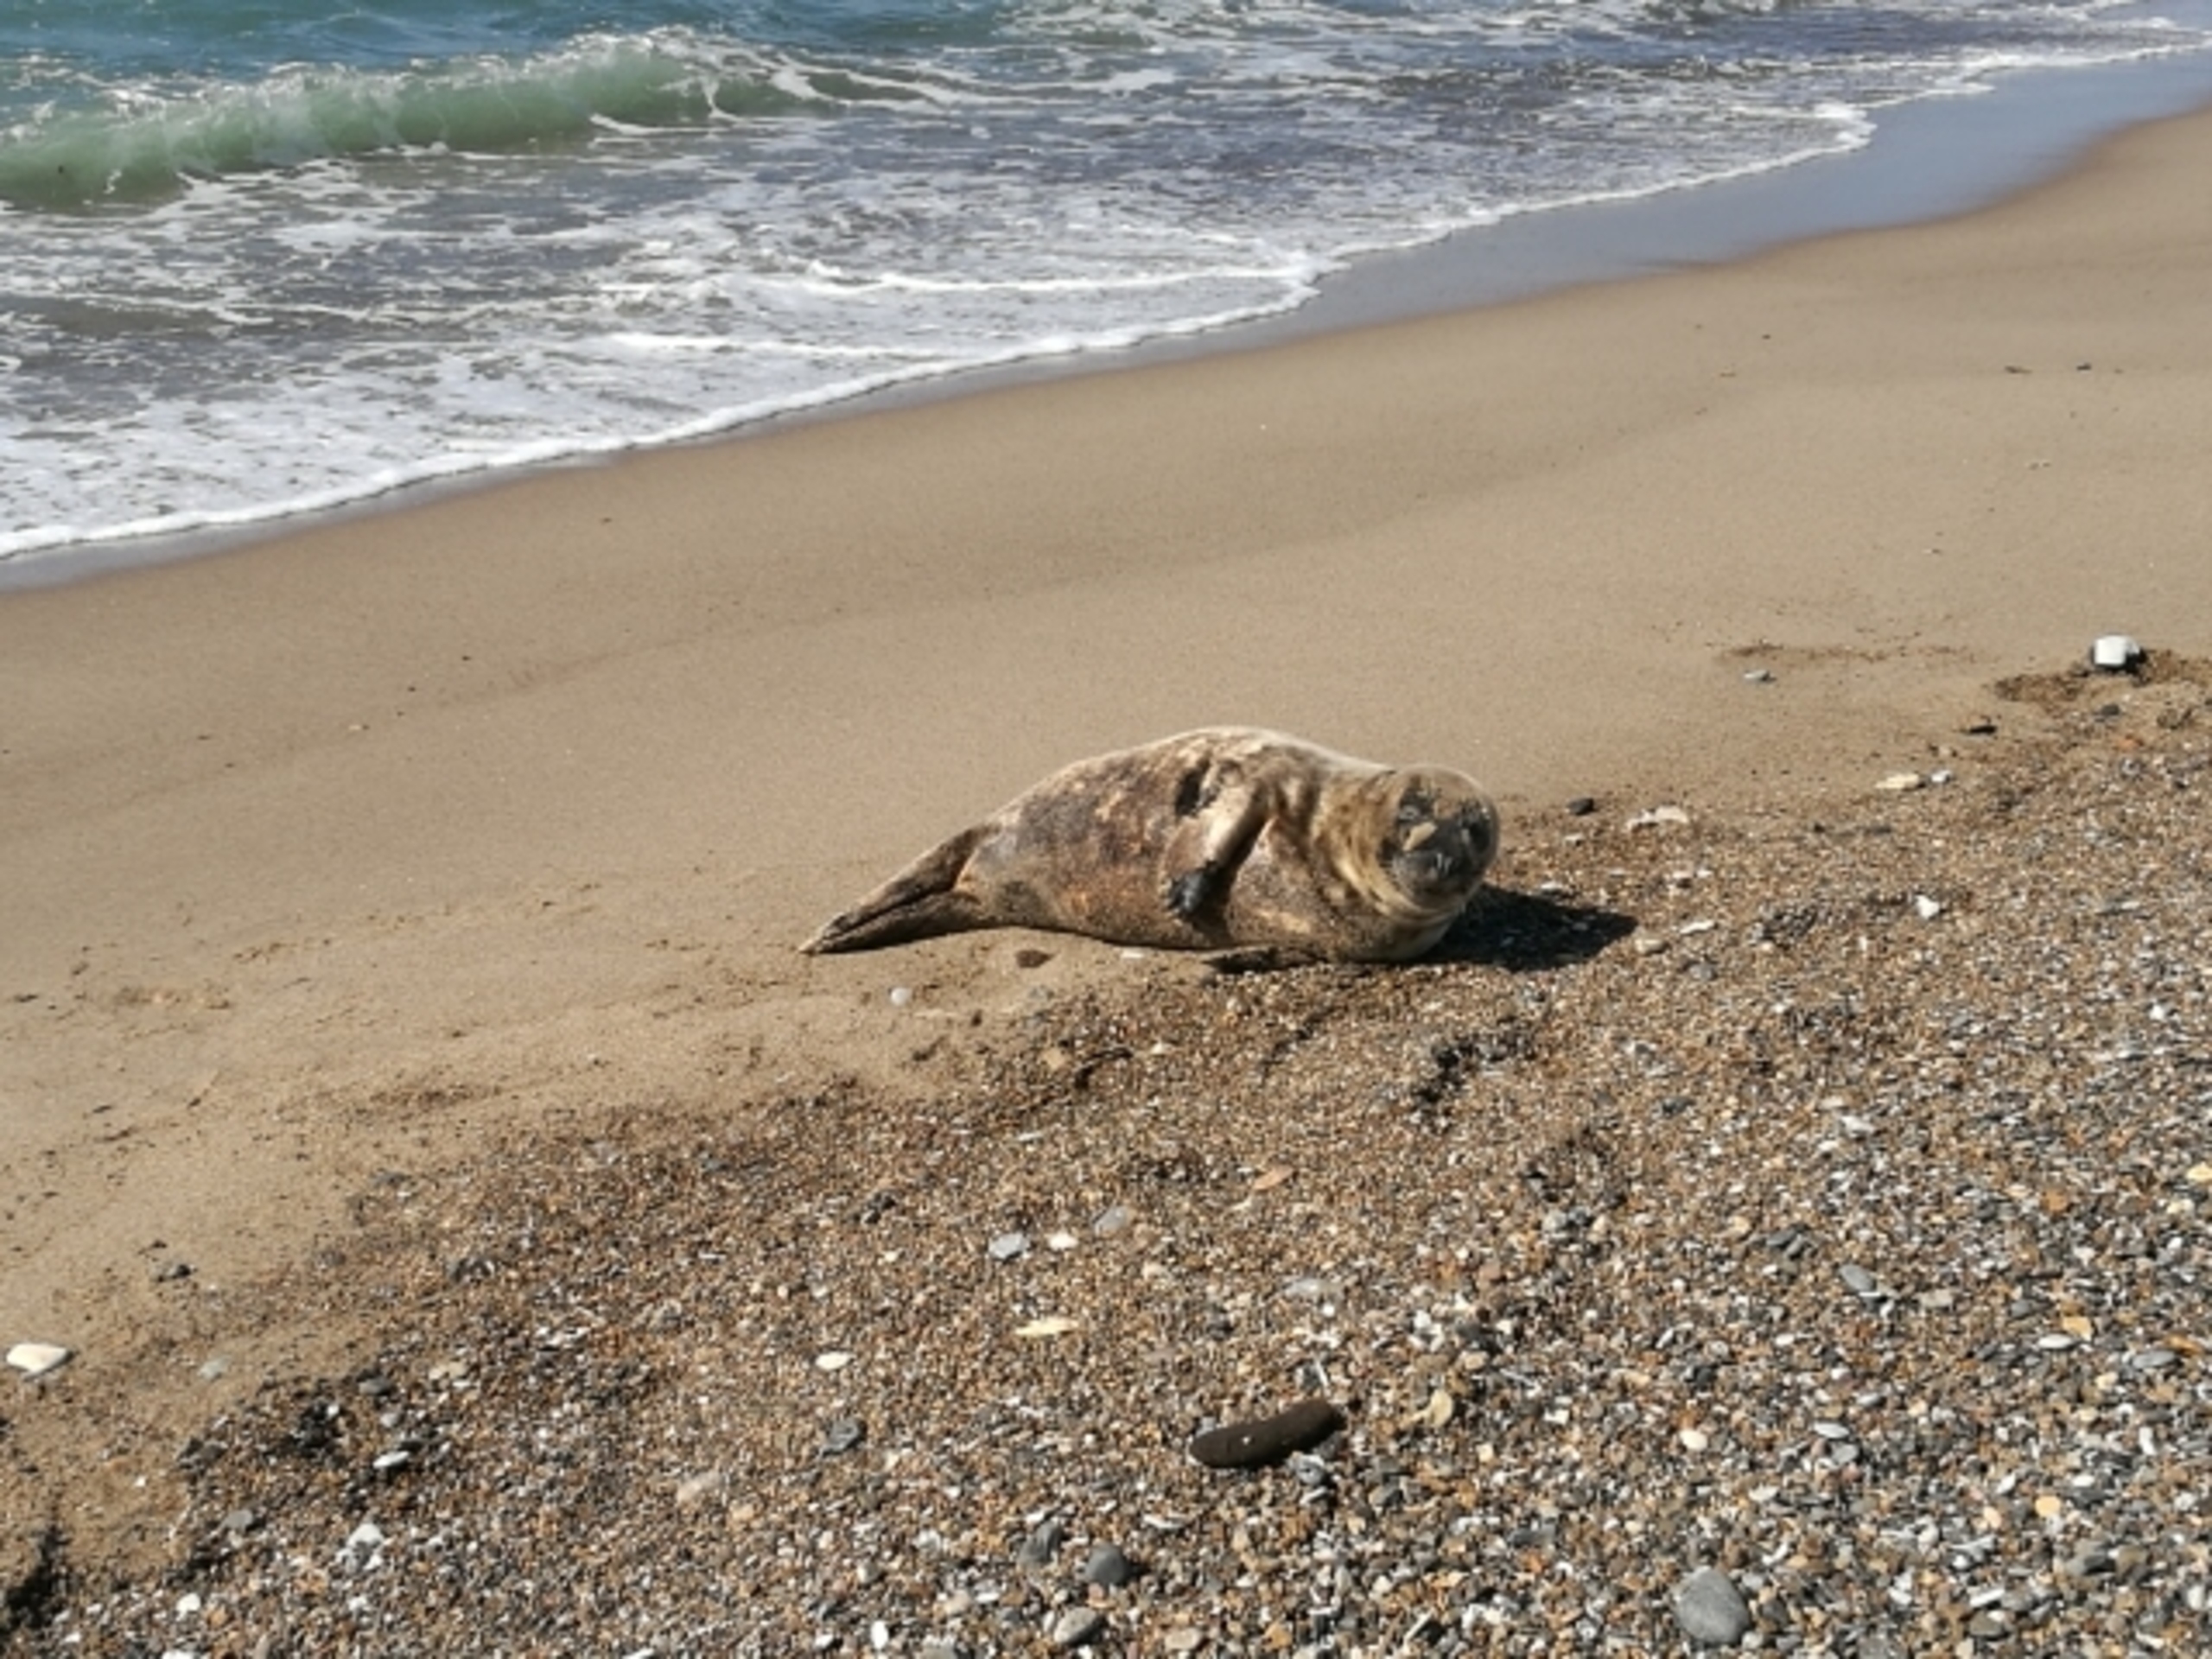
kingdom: Animalia
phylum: Chordata
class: Mammalia
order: Carnivora
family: Phocidae
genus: Phoca
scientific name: Phoca vitulina
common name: Spættet sæl
